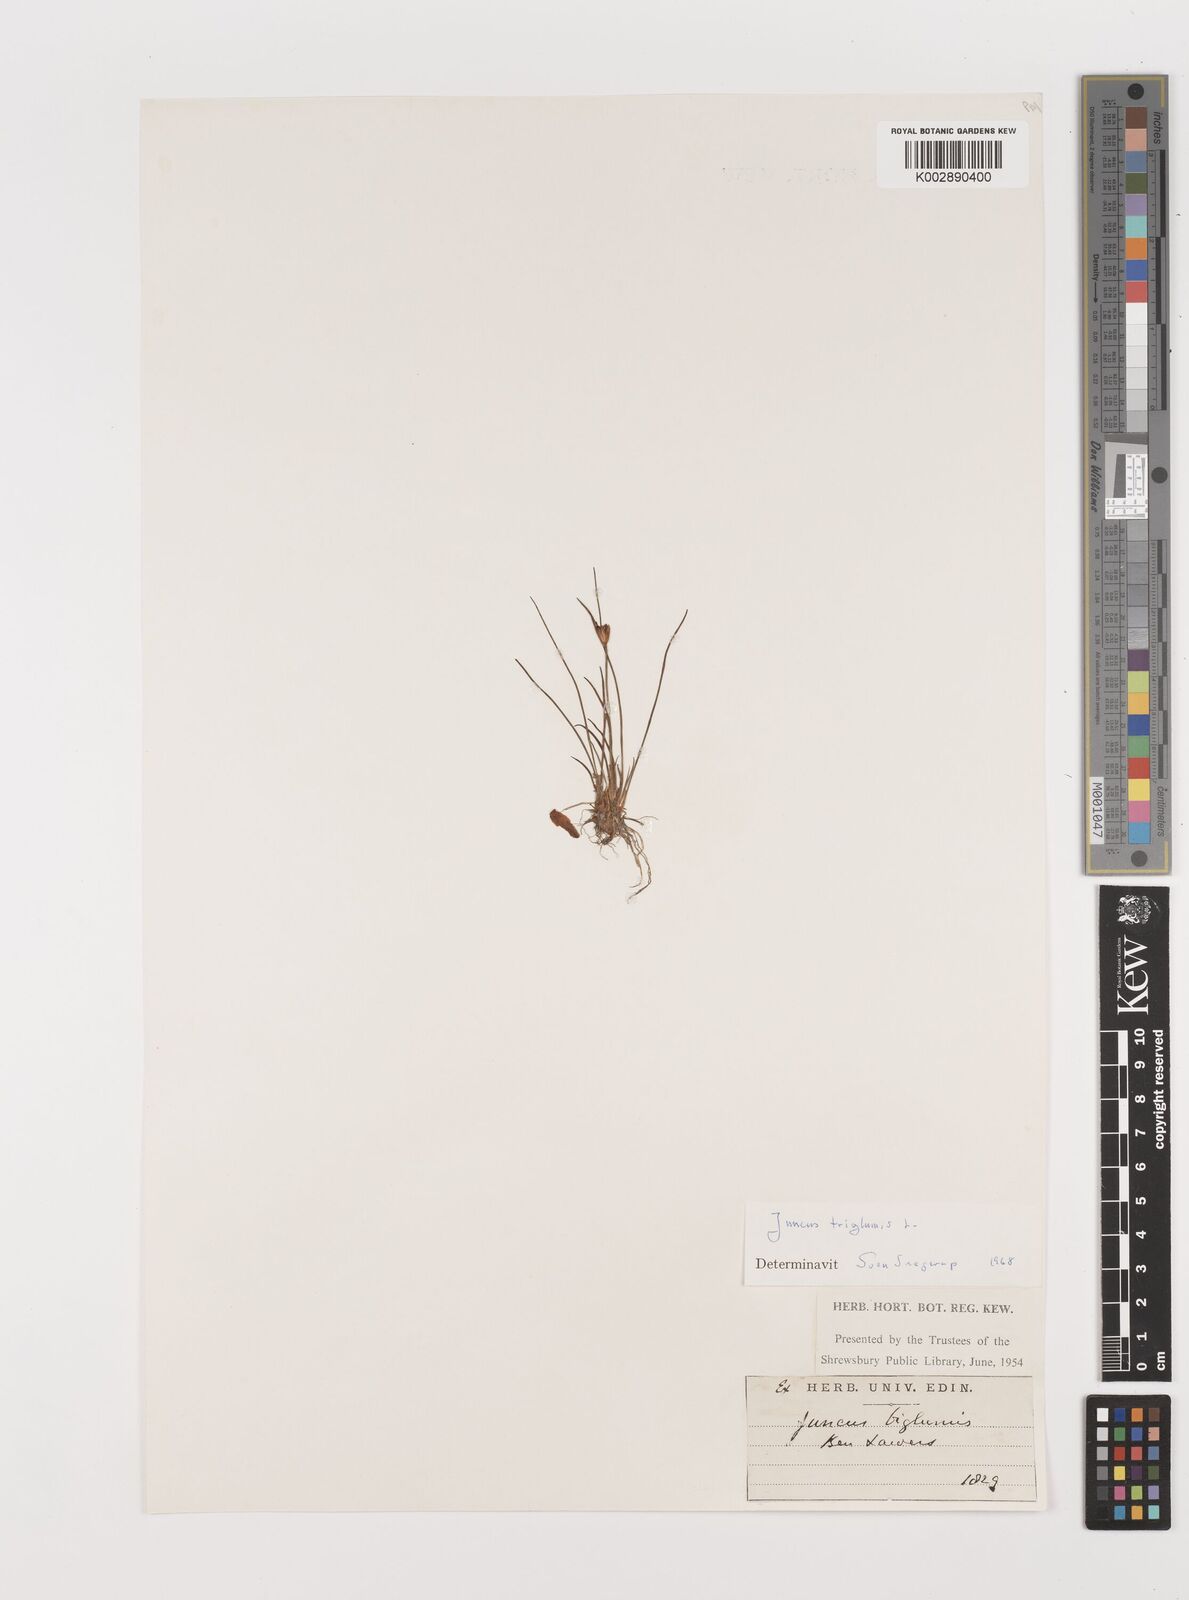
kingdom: Plantae
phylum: Tracheophyta
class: Liliopsida
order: Poales
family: Juncaceae
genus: Juncus
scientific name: Juncus triglumis
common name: Three-flowered rush
